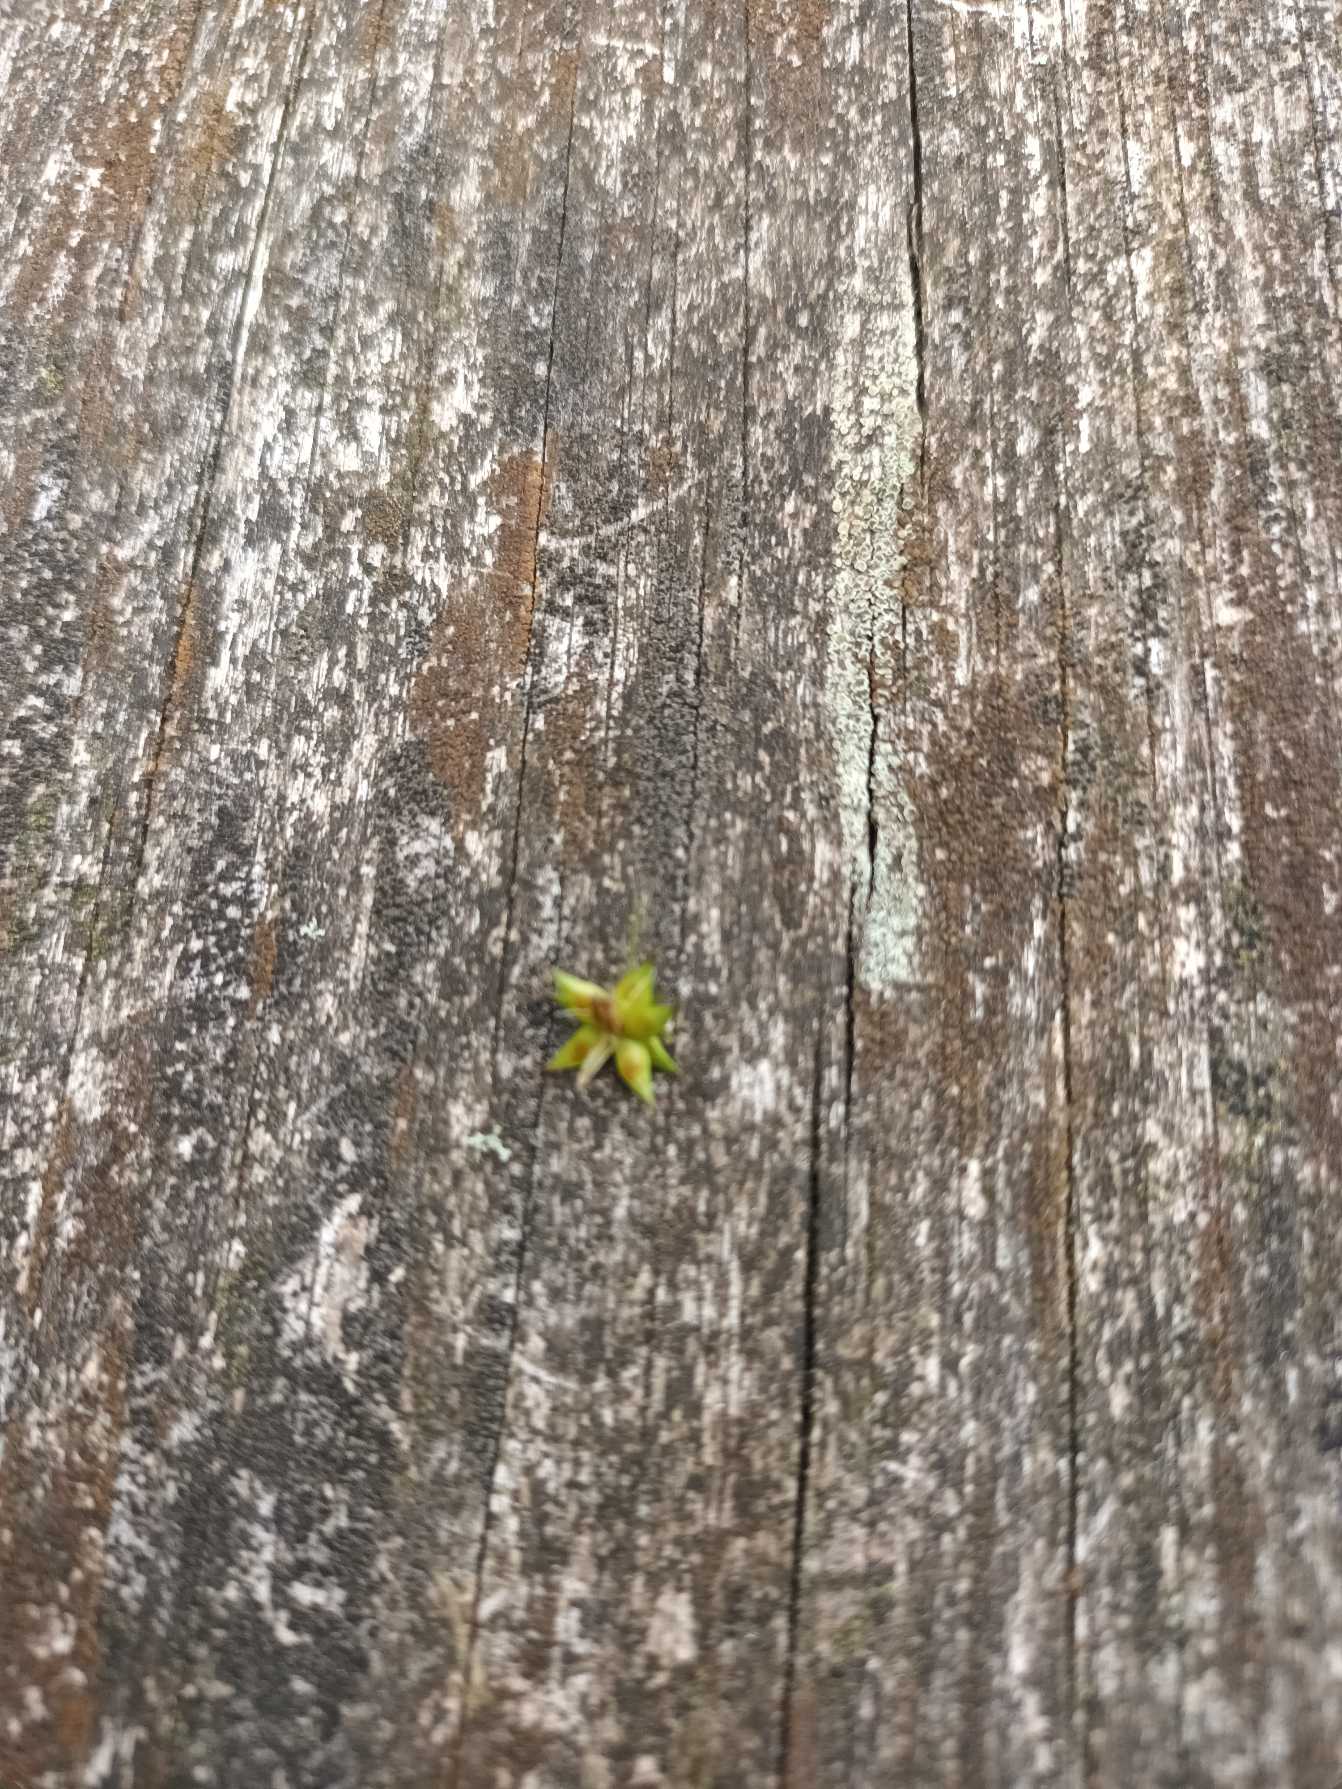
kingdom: Plantae
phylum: Tracheophyta
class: Liliopsida
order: Poales
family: Cyperaceae
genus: Carex
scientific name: Carex spicata
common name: Spidskapslet star
